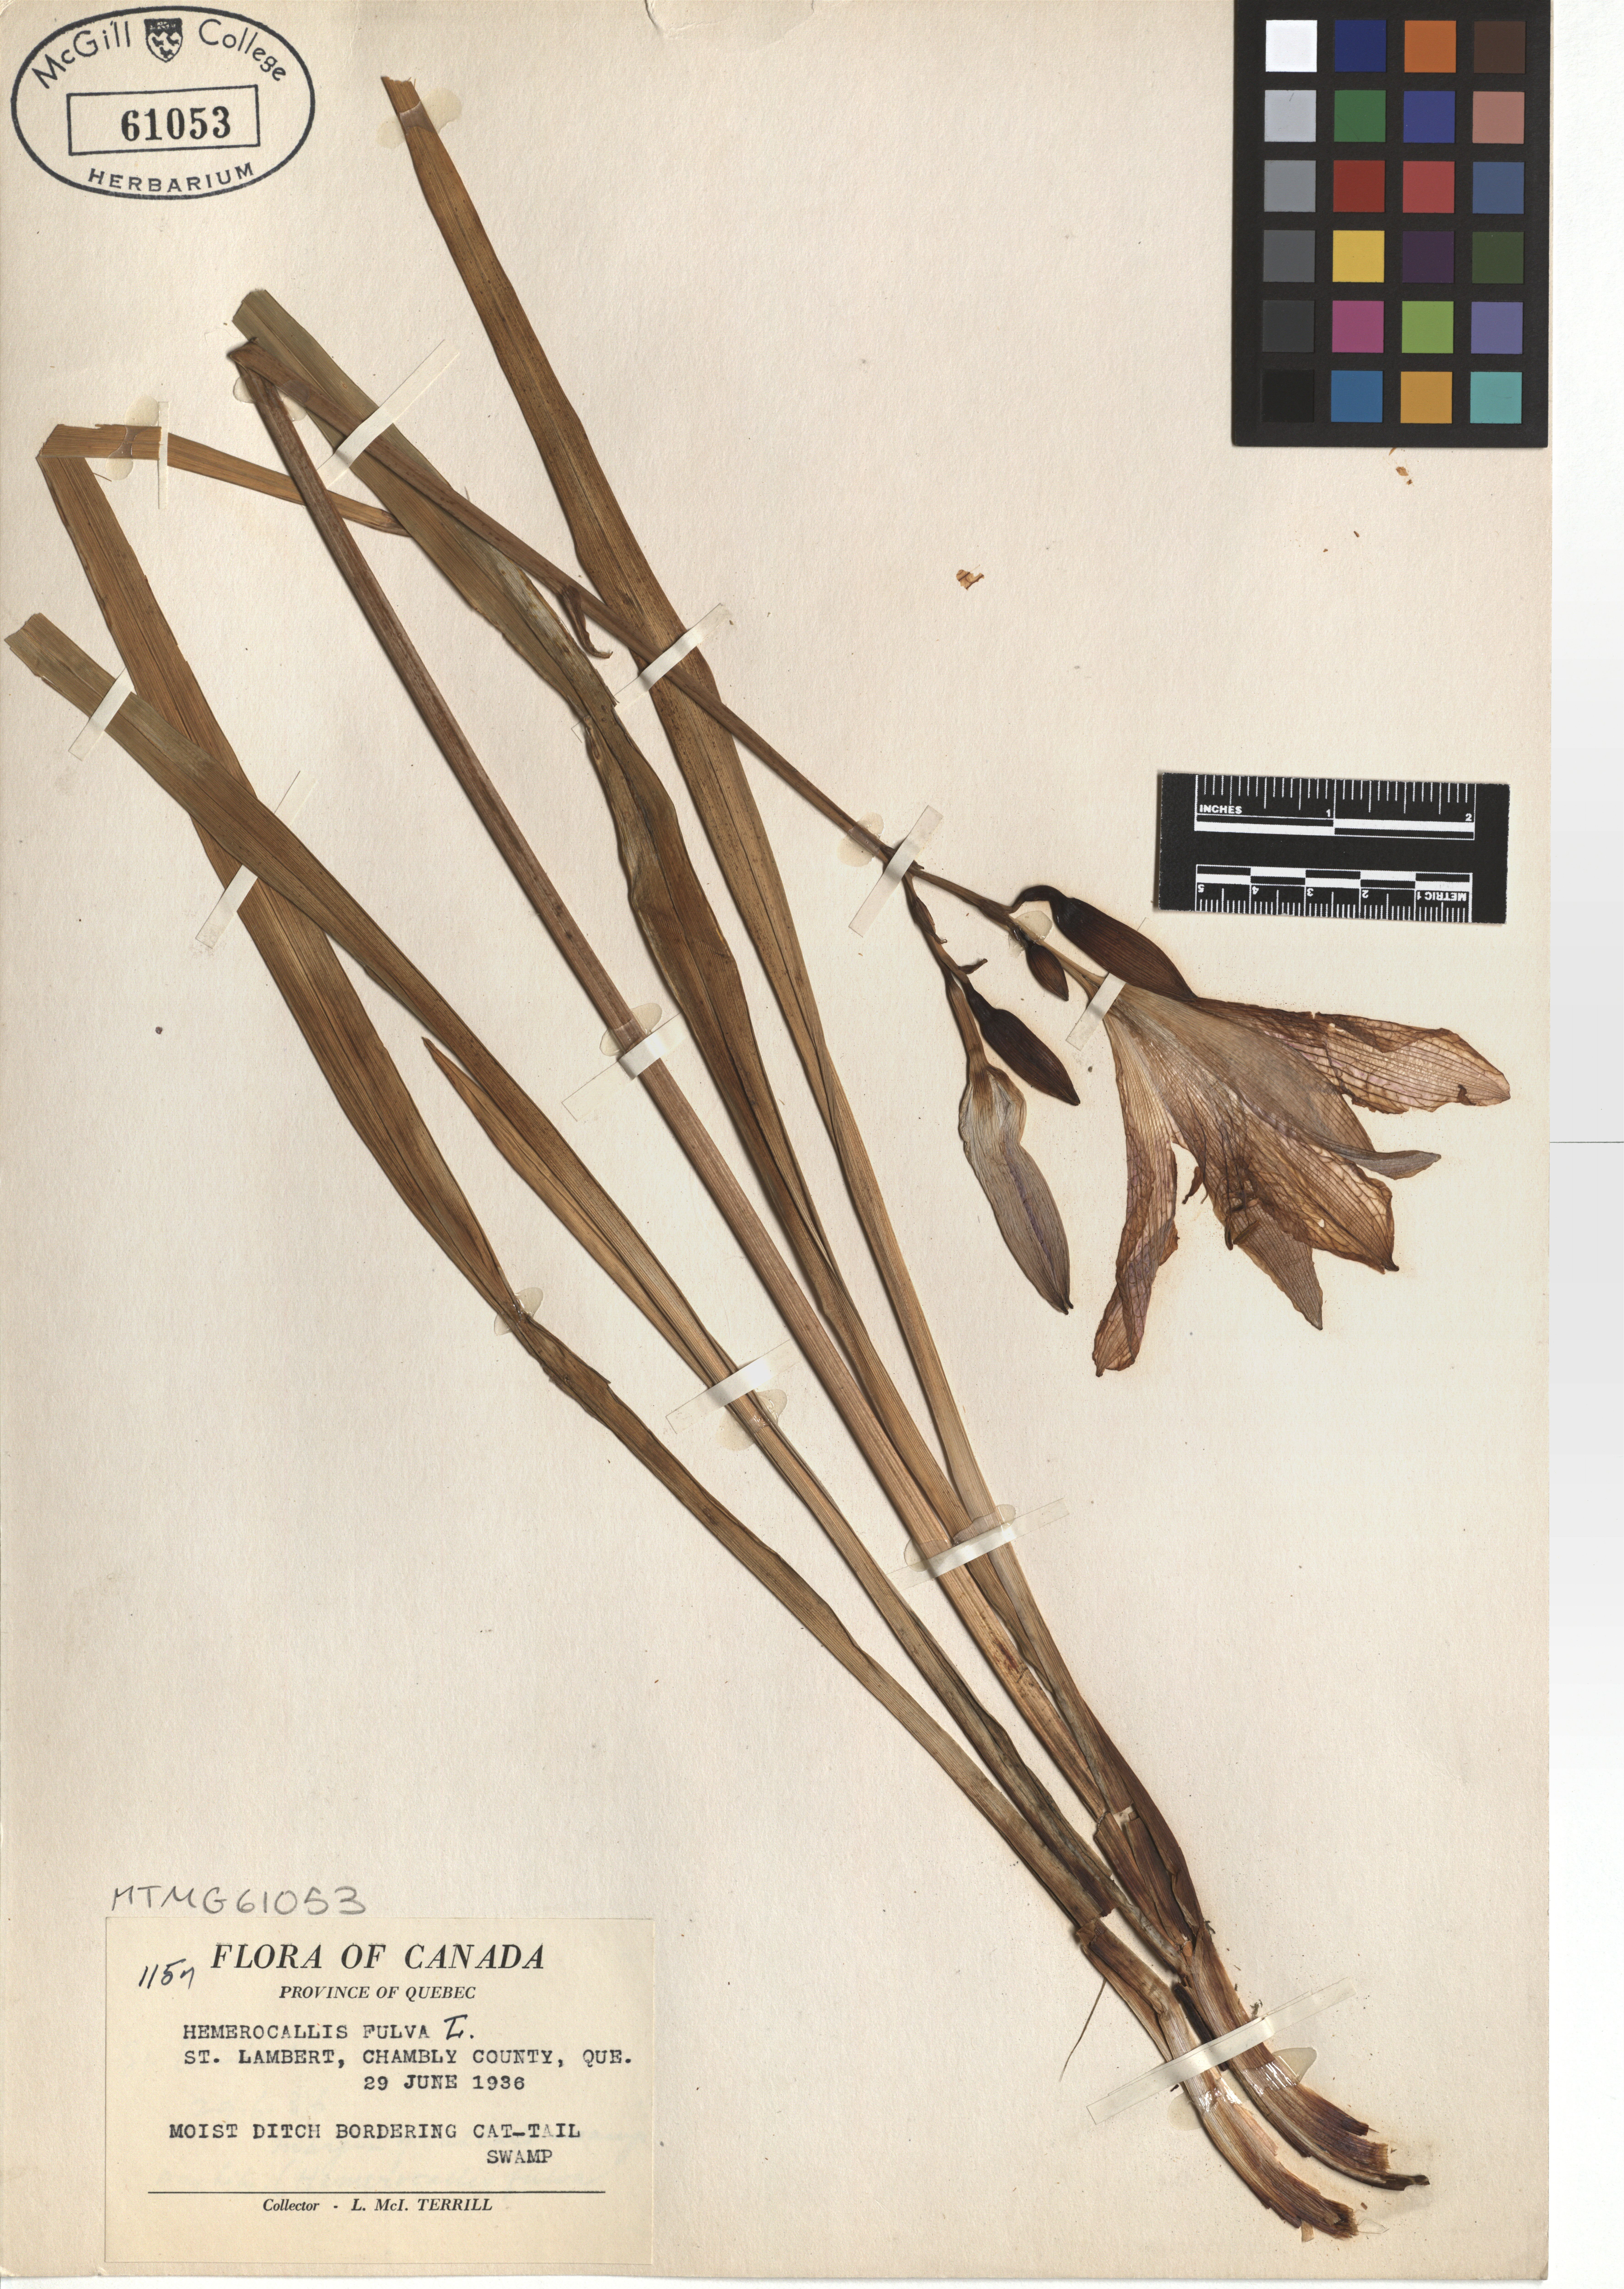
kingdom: Plantae
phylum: Tracheophyta
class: Liliopsida
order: Asparagales
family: Asphodelaceae
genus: Hemerocallis
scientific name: Hemerocallis fulva
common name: Orange day-lily
